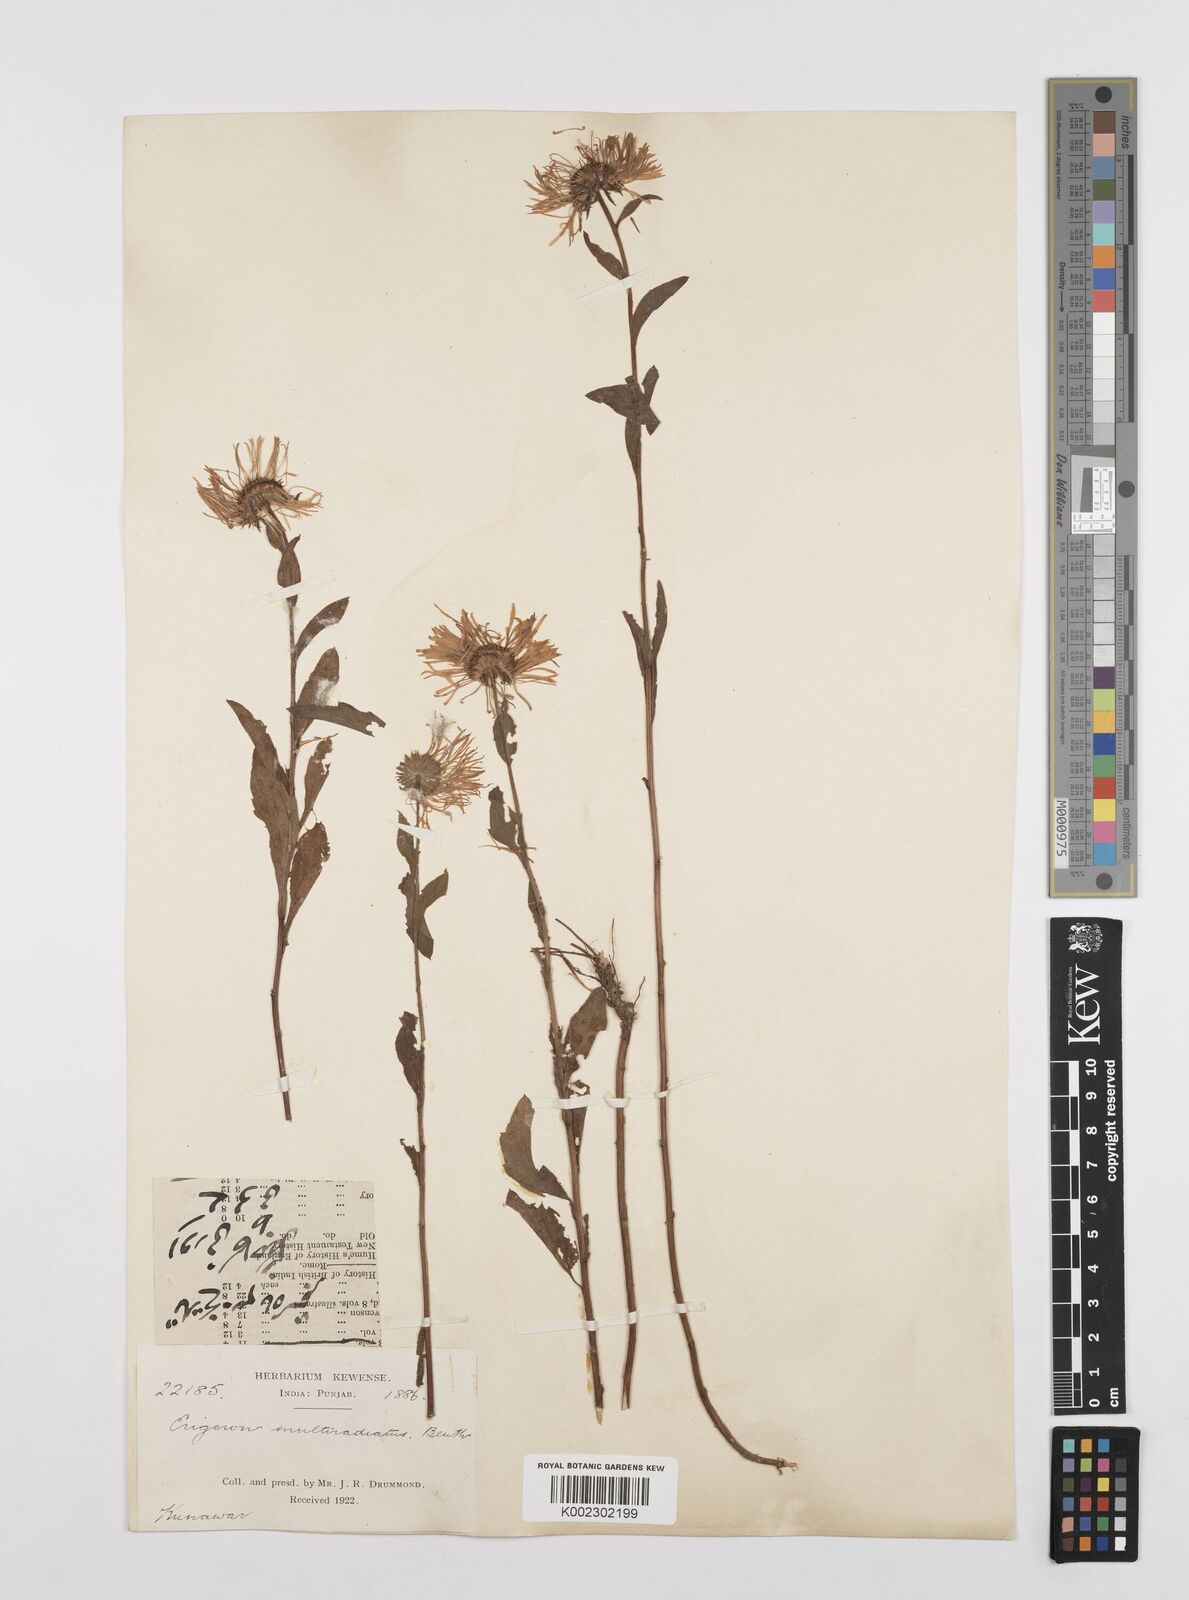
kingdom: Plantae
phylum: Tracheophyta
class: Magnoliopsida
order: Asterales
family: Asteraceae
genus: Erigeron
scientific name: Erigeron multiradiatus
